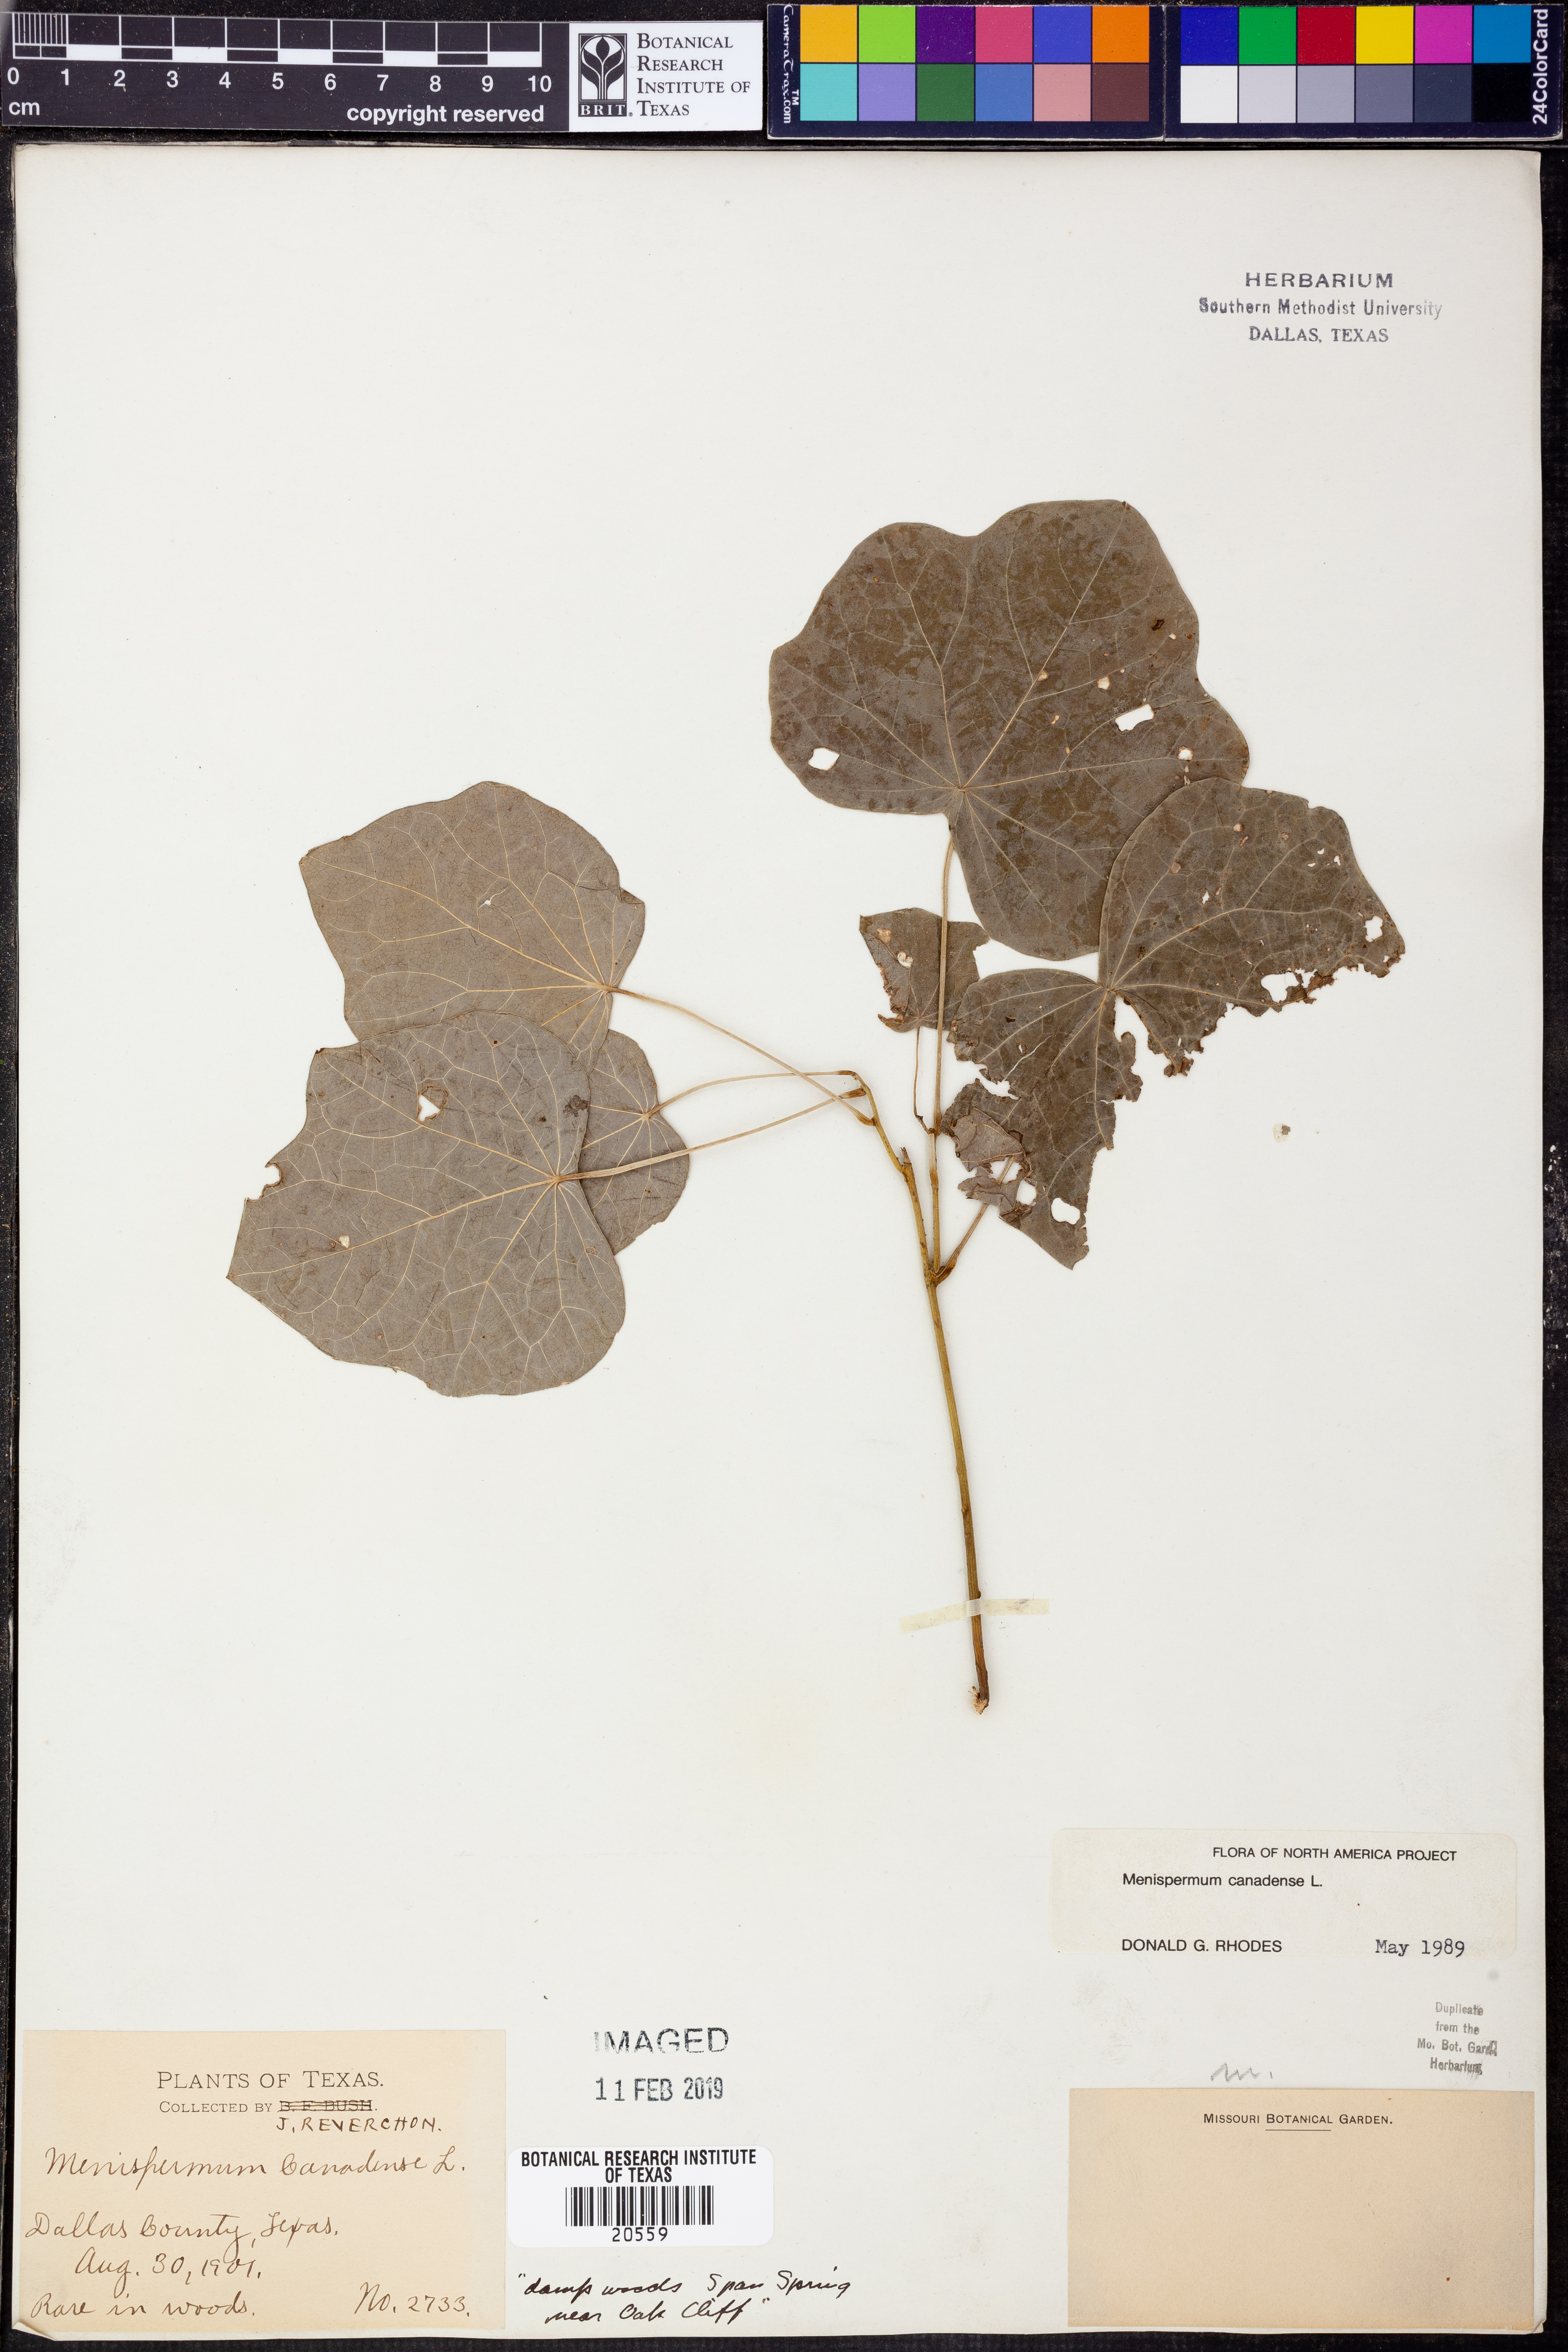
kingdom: Plantae
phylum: Tracheophyta
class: Magnoliopsida
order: Ranunculales
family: Menispermaceae
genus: Menispermum
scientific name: Menispermum canadense
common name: Moonseed
